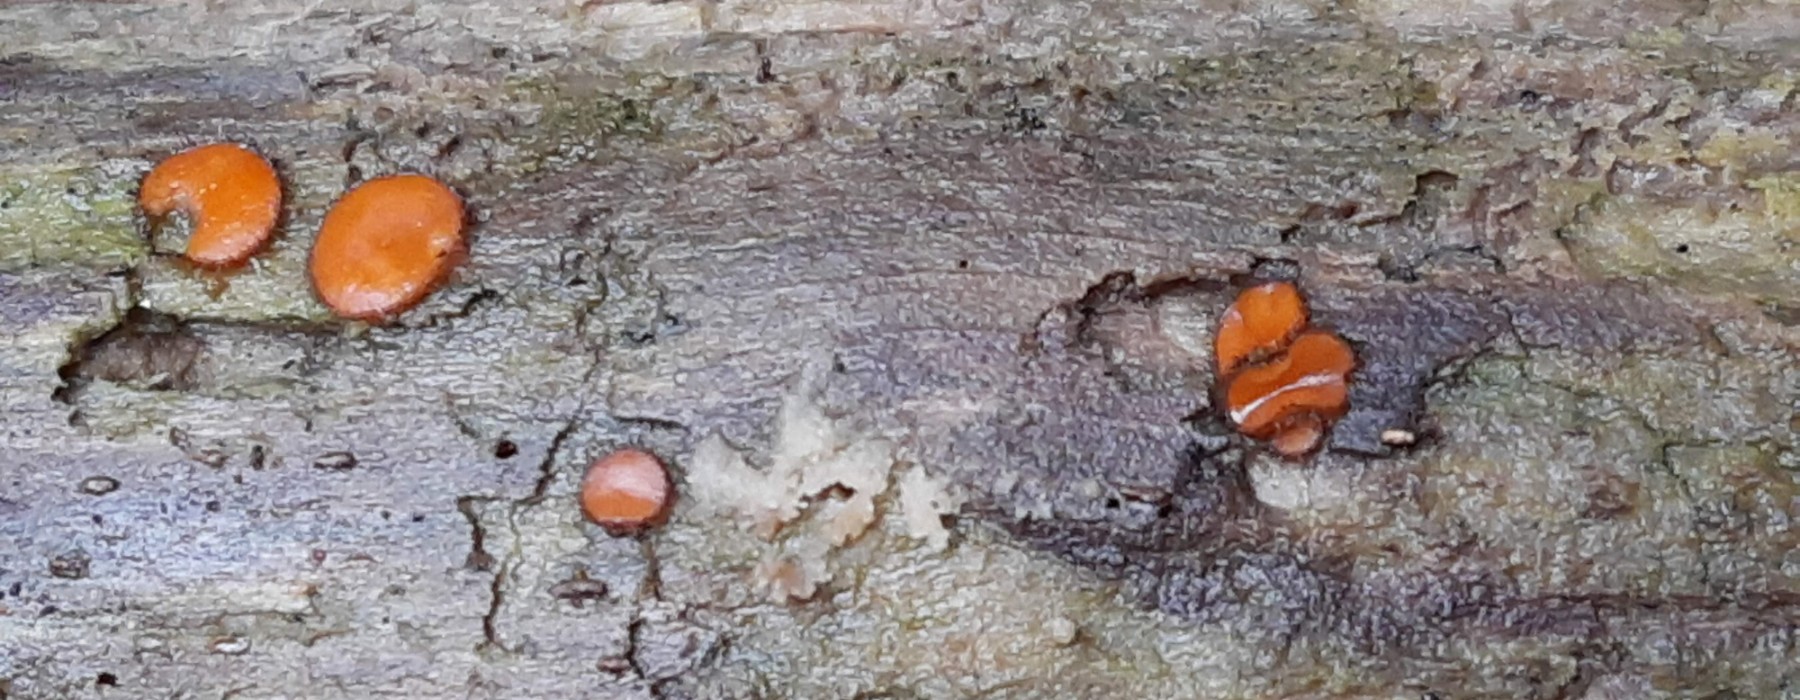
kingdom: Fungi
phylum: Ascomycota
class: Pezizomycetes
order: Pezizales
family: Pyronemataceae
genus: Scutellinia
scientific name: Scutellinia
